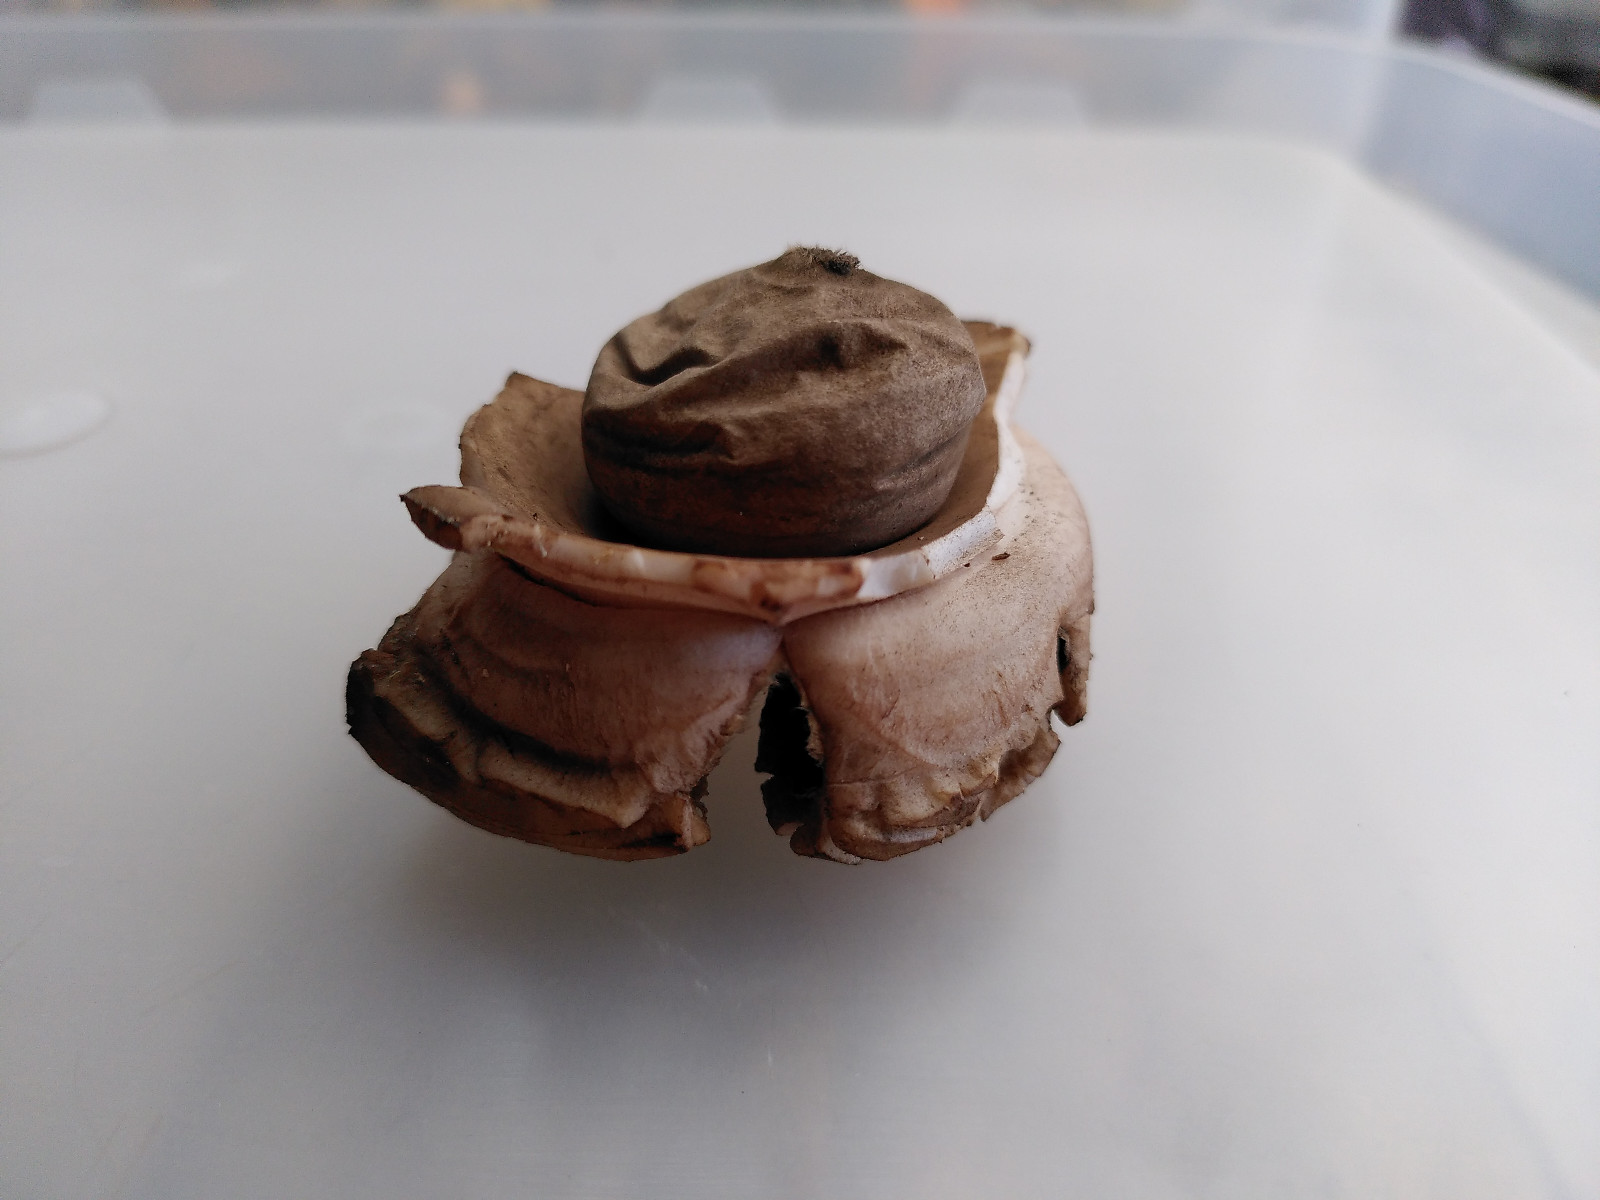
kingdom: Fungi
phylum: Basidiomycota
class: Agaricomycetes
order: Geastrales
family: Geastraceae
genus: Geastrum
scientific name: Geastrum michelianum
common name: kødet stjernebold
